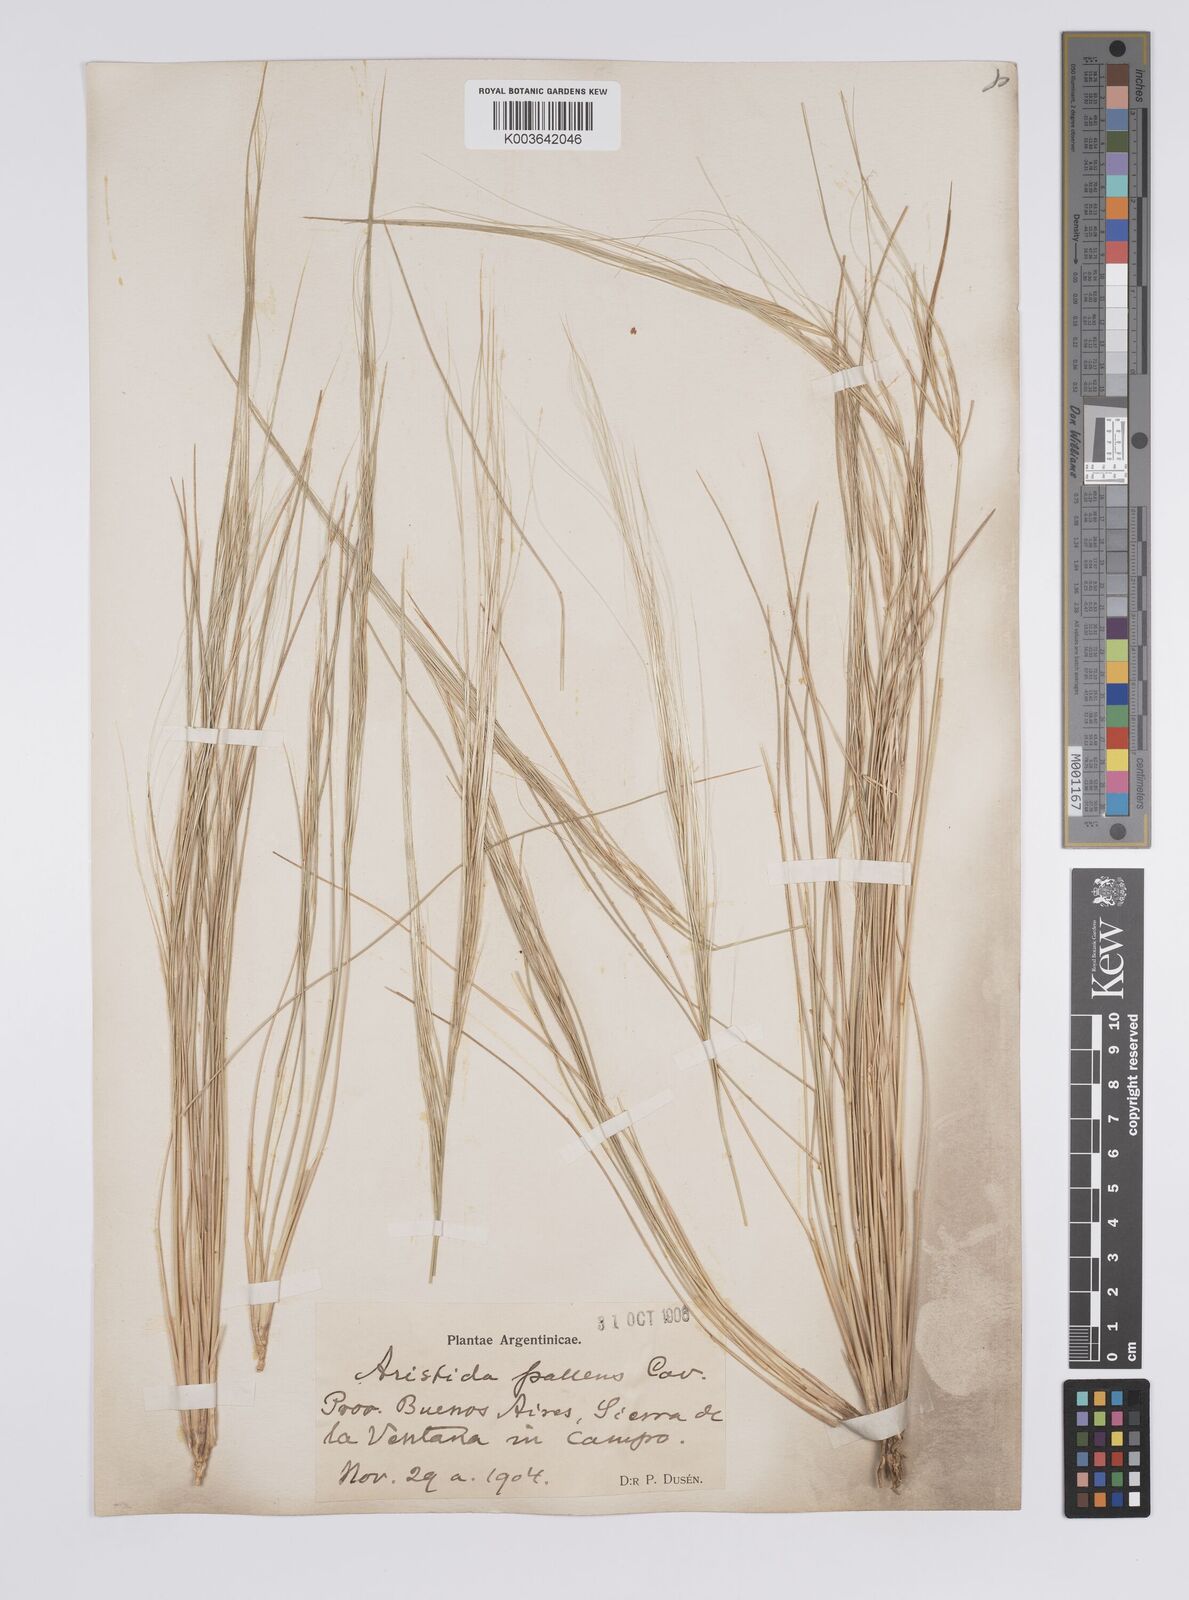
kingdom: Plantae
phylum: Tracheophyta
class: Liliopsida
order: Poales
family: Poaceae
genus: Aristida
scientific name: Aristida pallens
